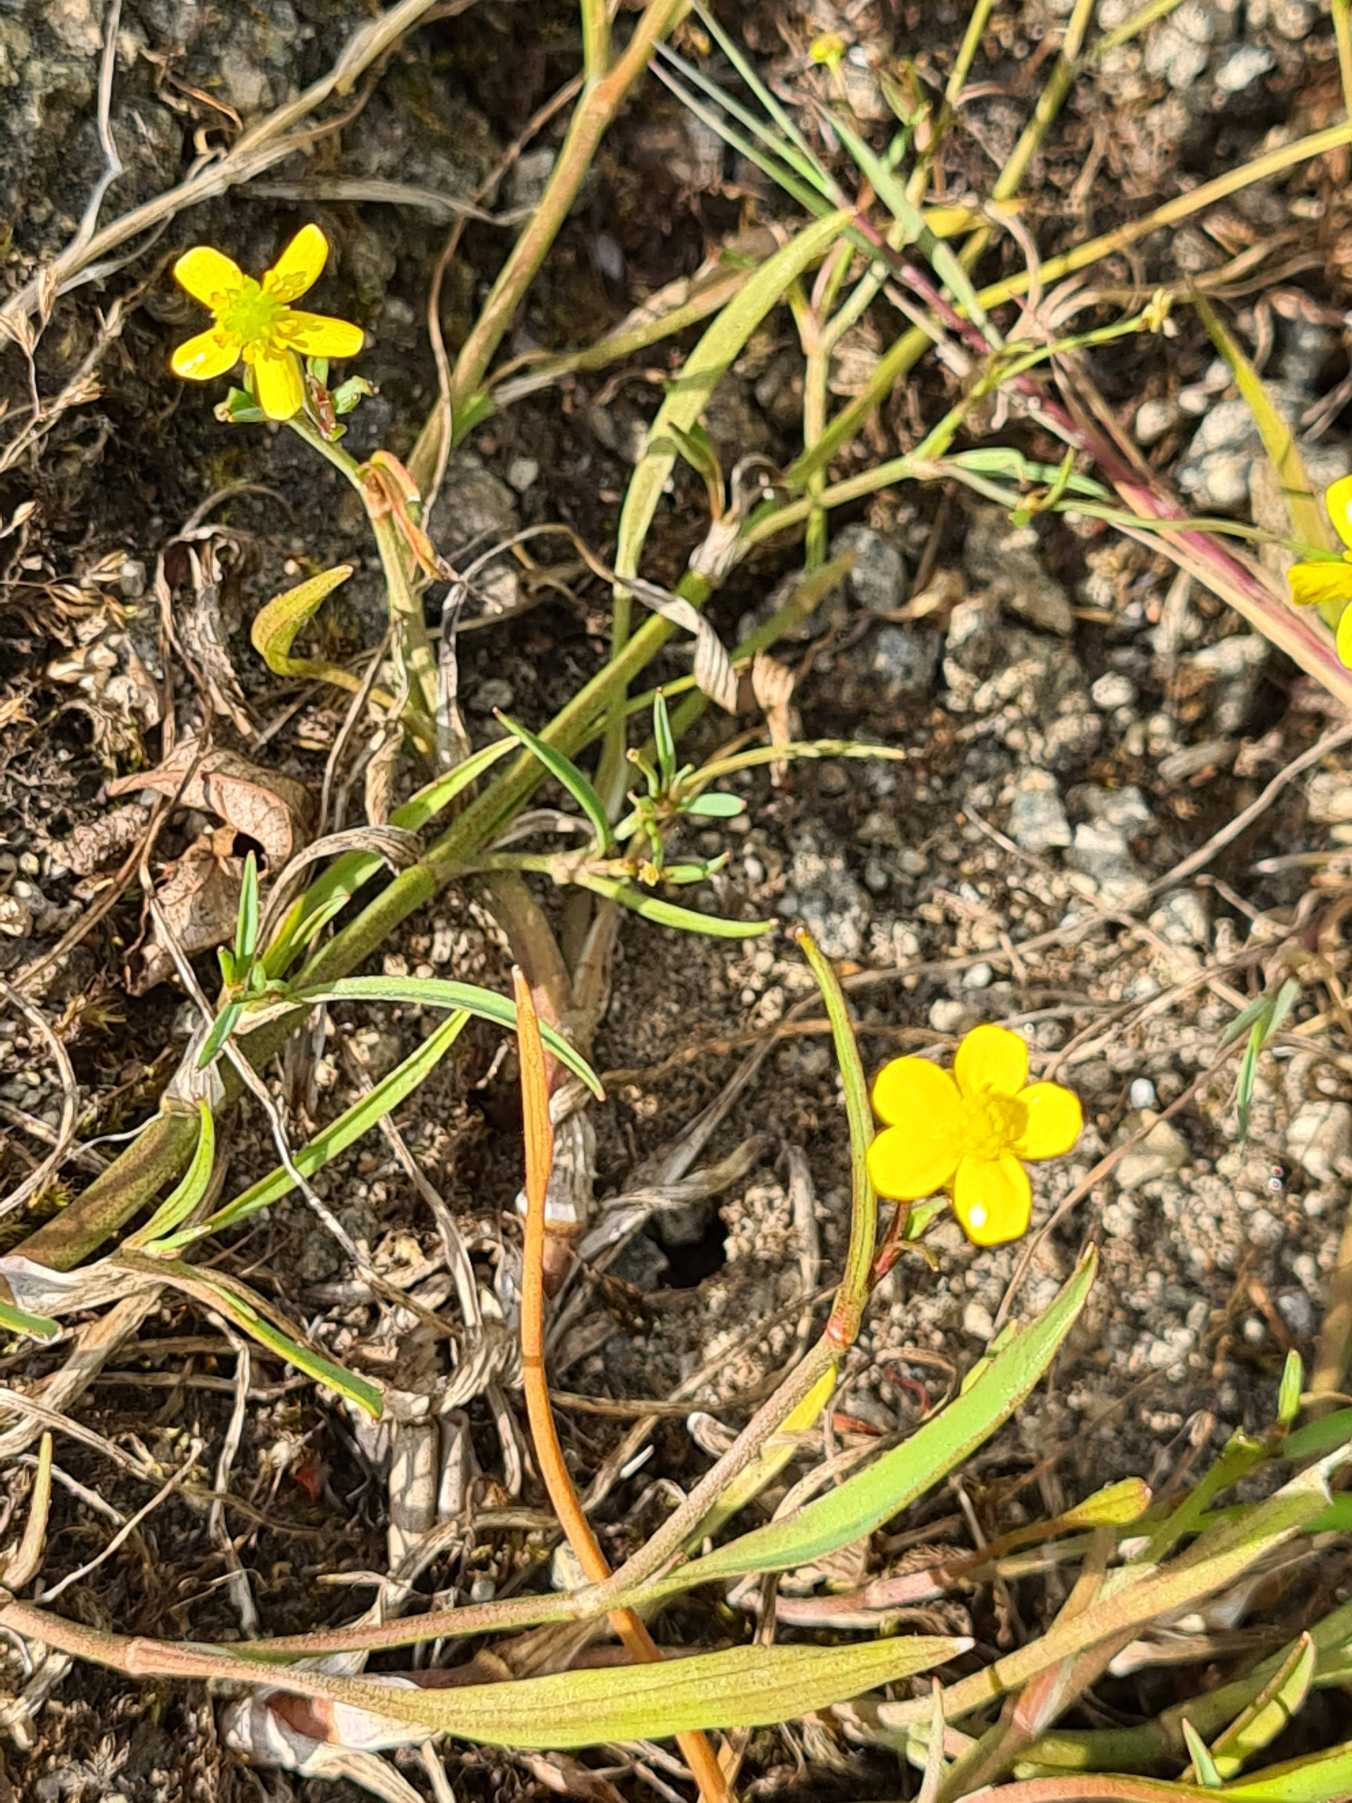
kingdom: Plantae
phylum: Tracheophyta
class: Magnoliopsida
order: Ranunculales
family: Ranunculaceae
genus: Ranunculus
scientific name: Ranunculus flammula
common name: Kær-ranunkel
